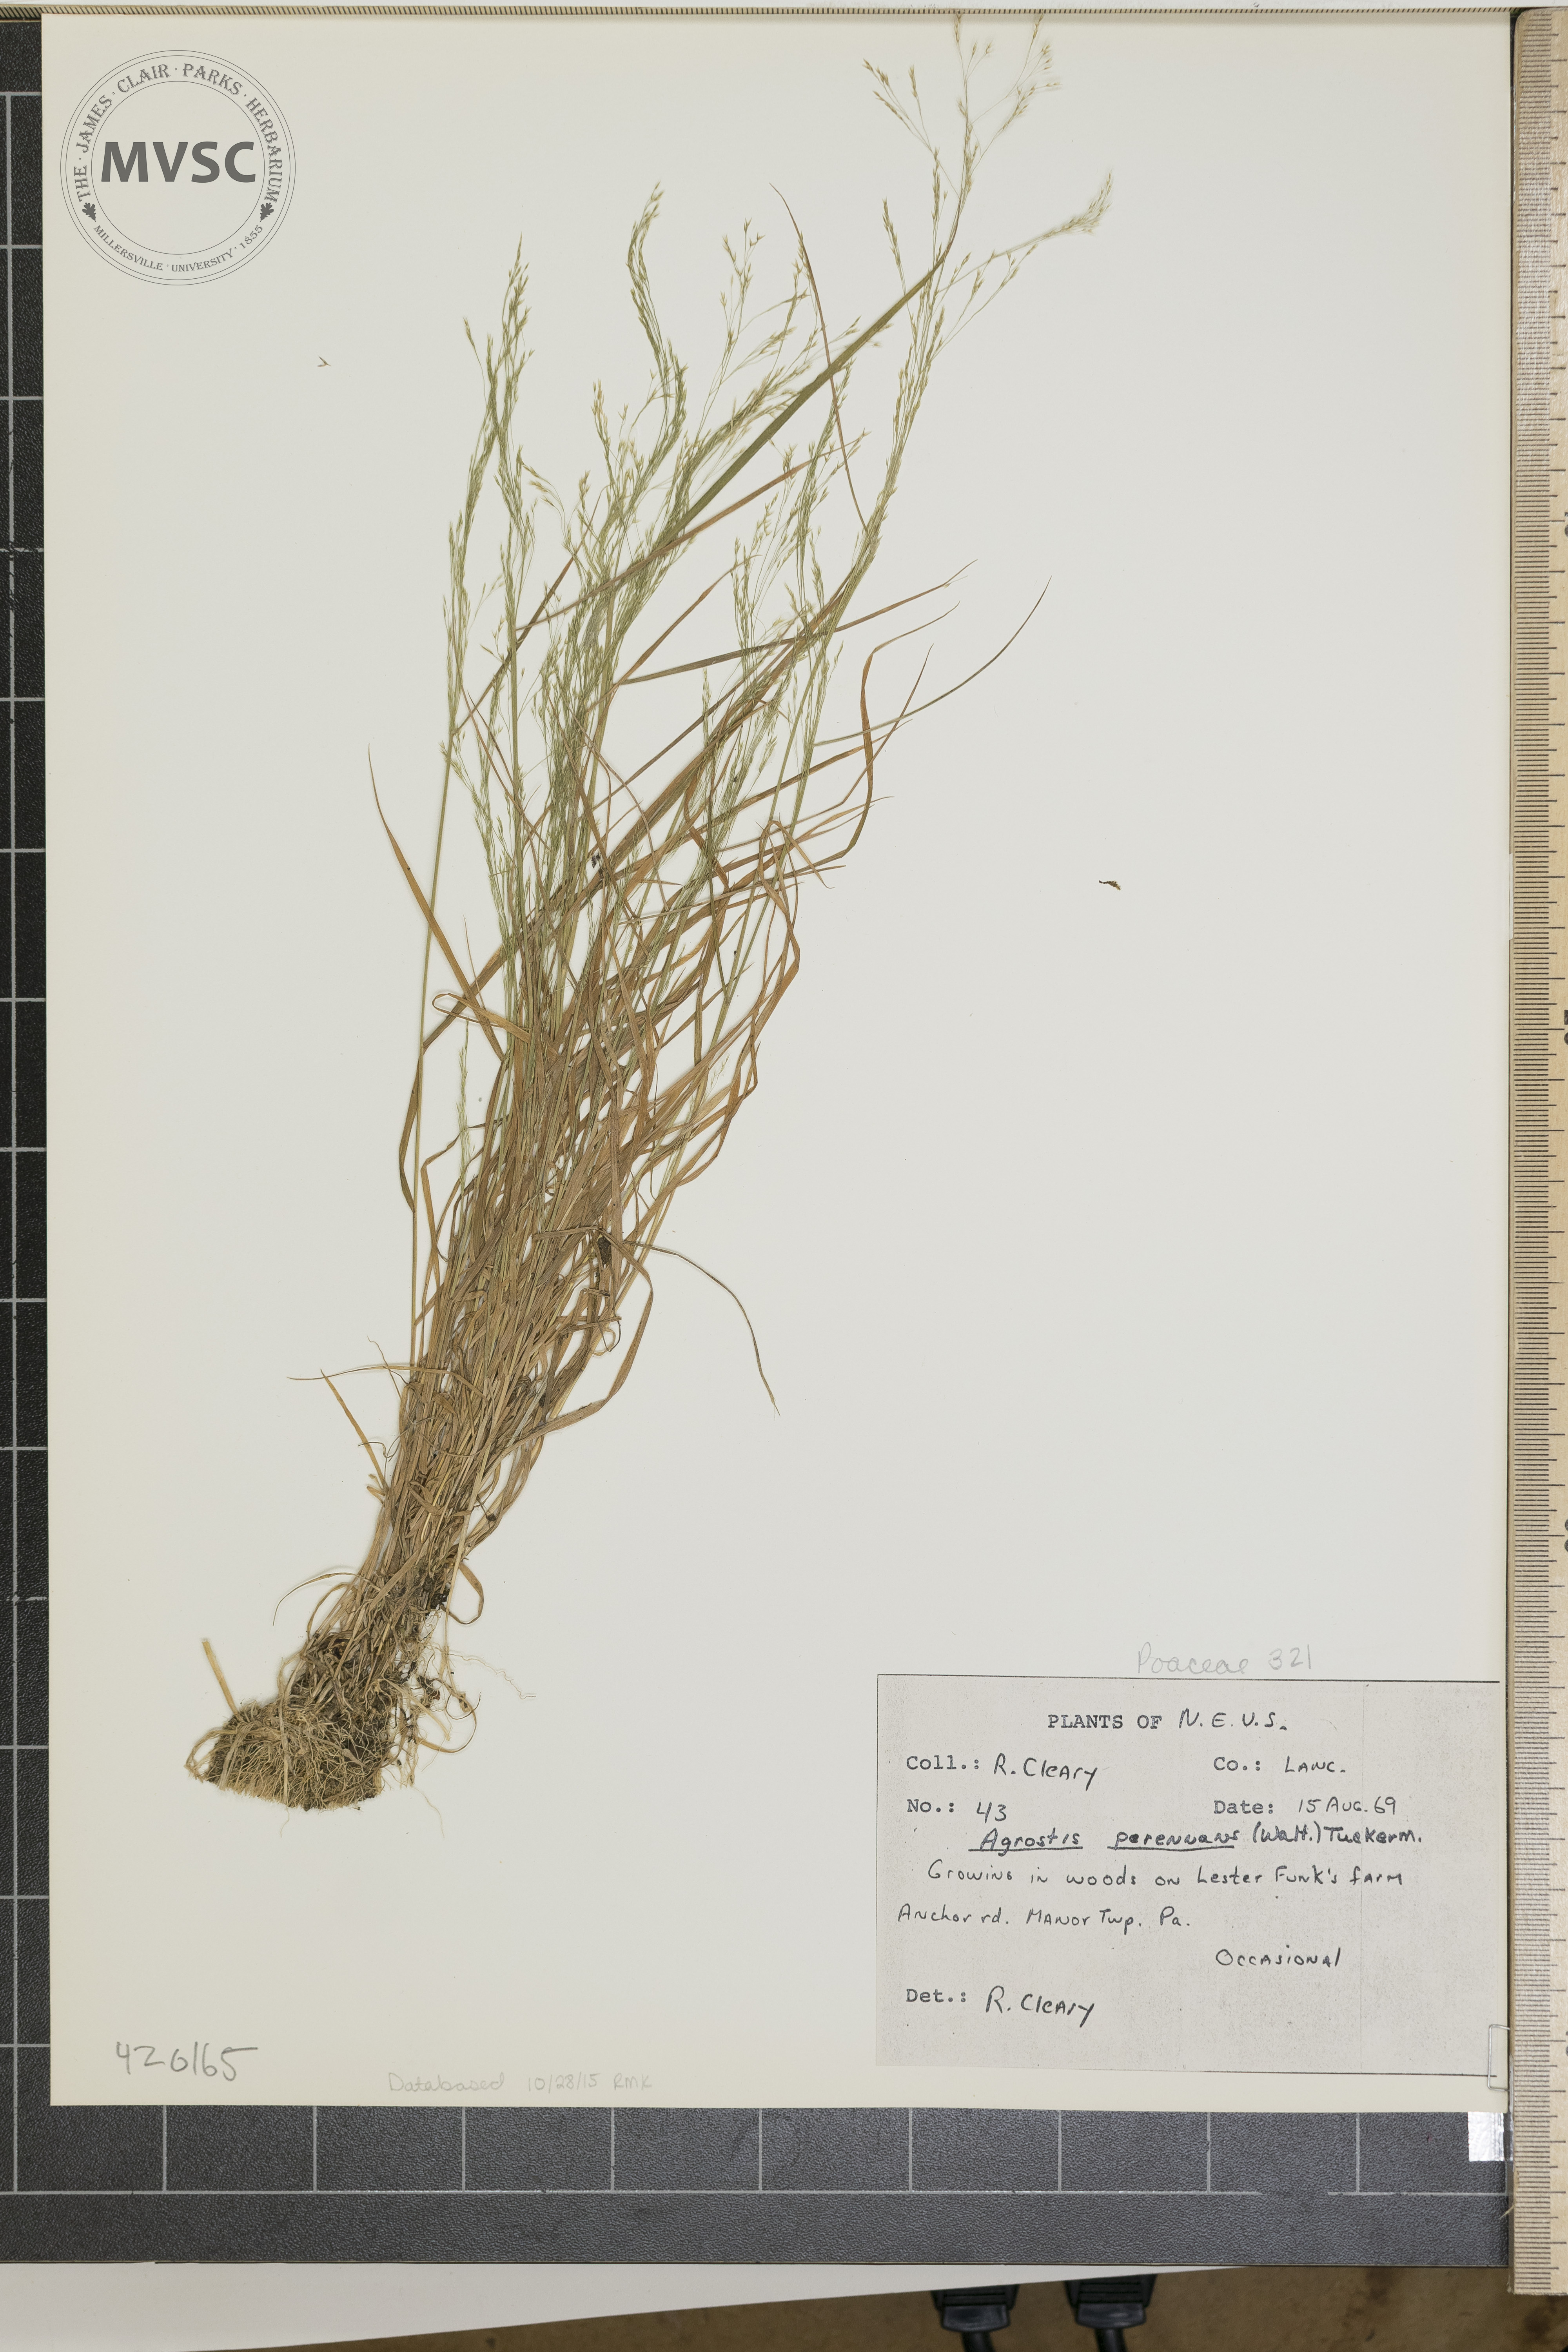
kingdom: Plantae
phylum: Tracheophyta
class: Liliopsida
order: Poales
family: Poaceae
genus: Agrostis
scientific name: Agrostis perennans
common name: Autumn bent
